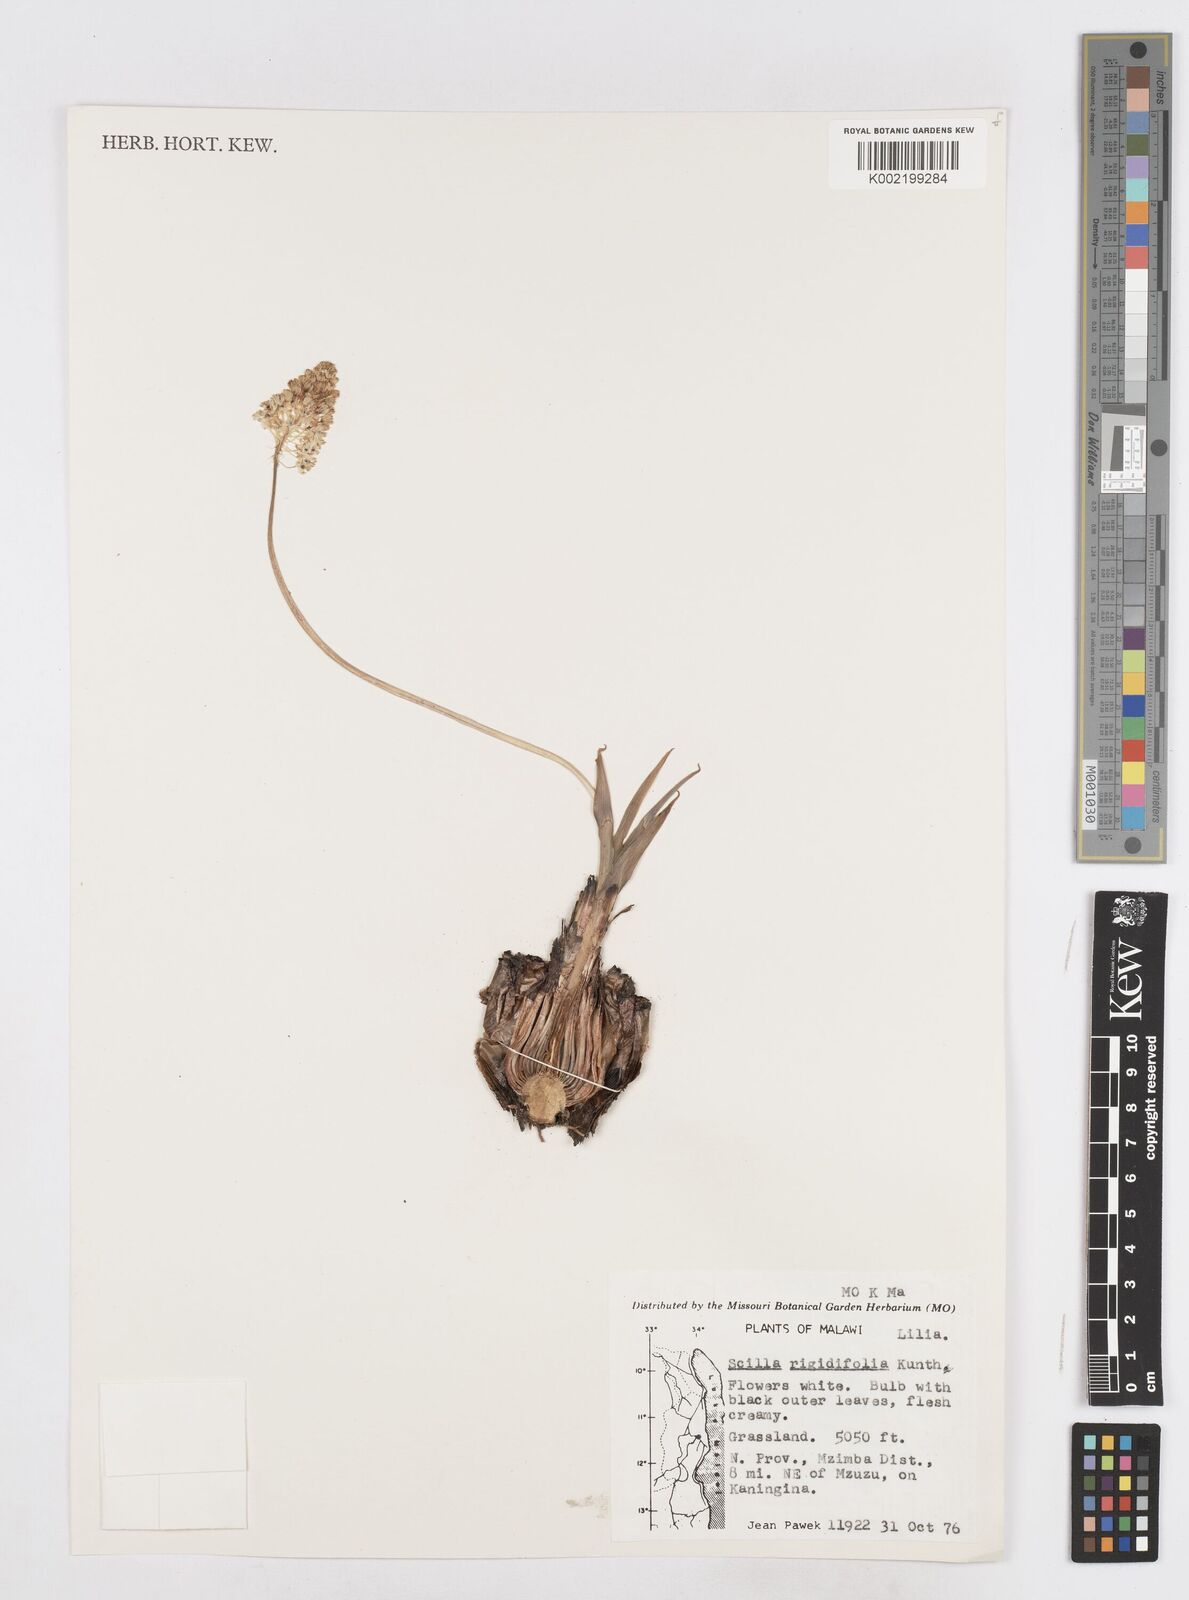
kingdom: Plantae
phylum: Tracheophyta
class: Liliopsida
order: Asparagales
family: Asparagaceae
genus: Schizocarphus
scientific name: Schizocarphus nervosus
